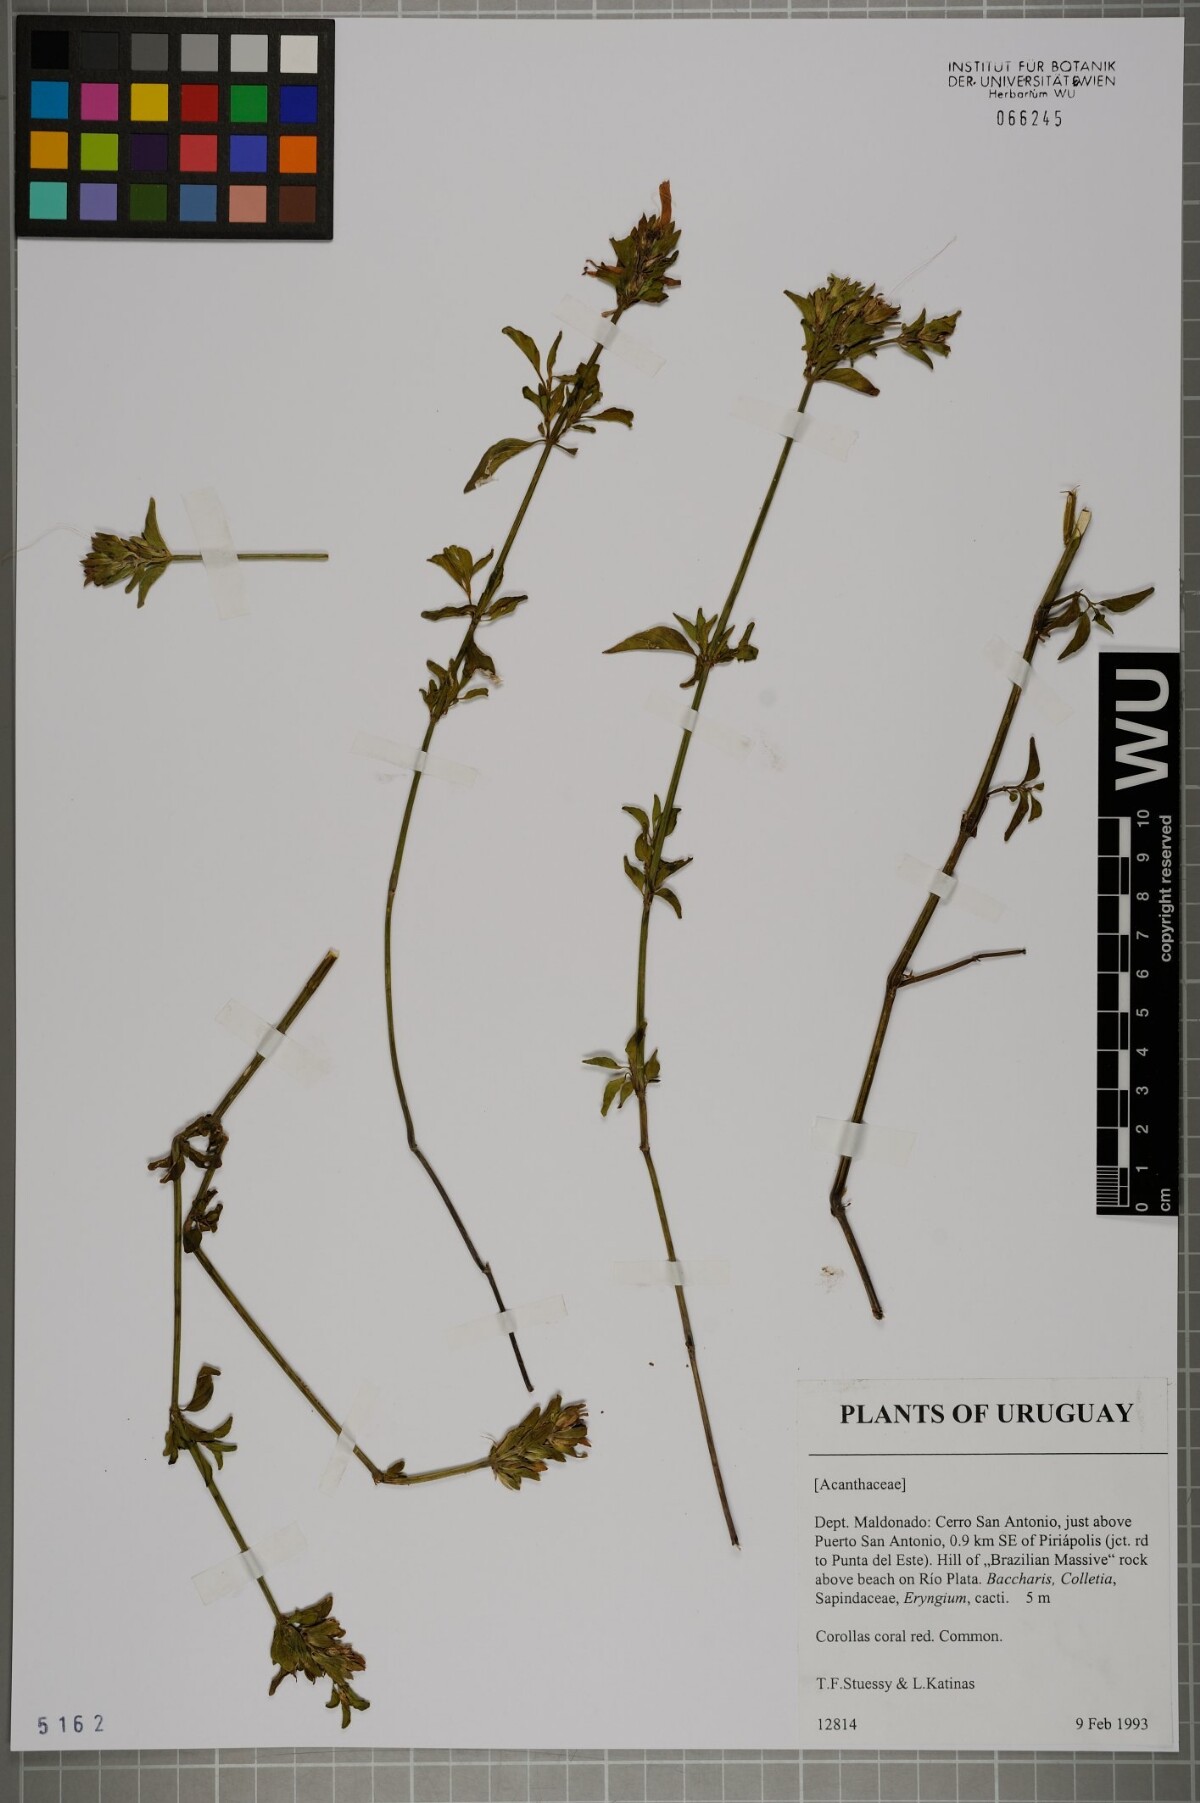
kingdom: Plantae
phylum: Tracheophyta
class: Magnoliopsida
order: Lamiales
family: Acanthaceae
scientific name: Acanthaceae
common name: Acanthaceae
